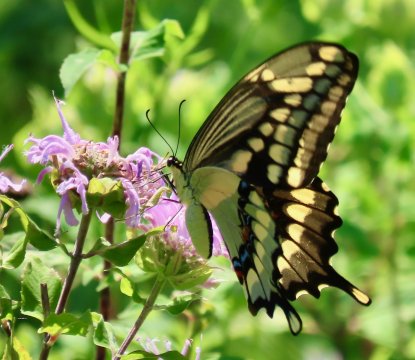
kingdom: Animalia
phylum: Arthropoda
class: Insecta
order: Lepidoptera
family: Papilionidae
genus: Papilio
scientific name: Papilio cresphontes
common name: Eastern Giant Swallowtail
